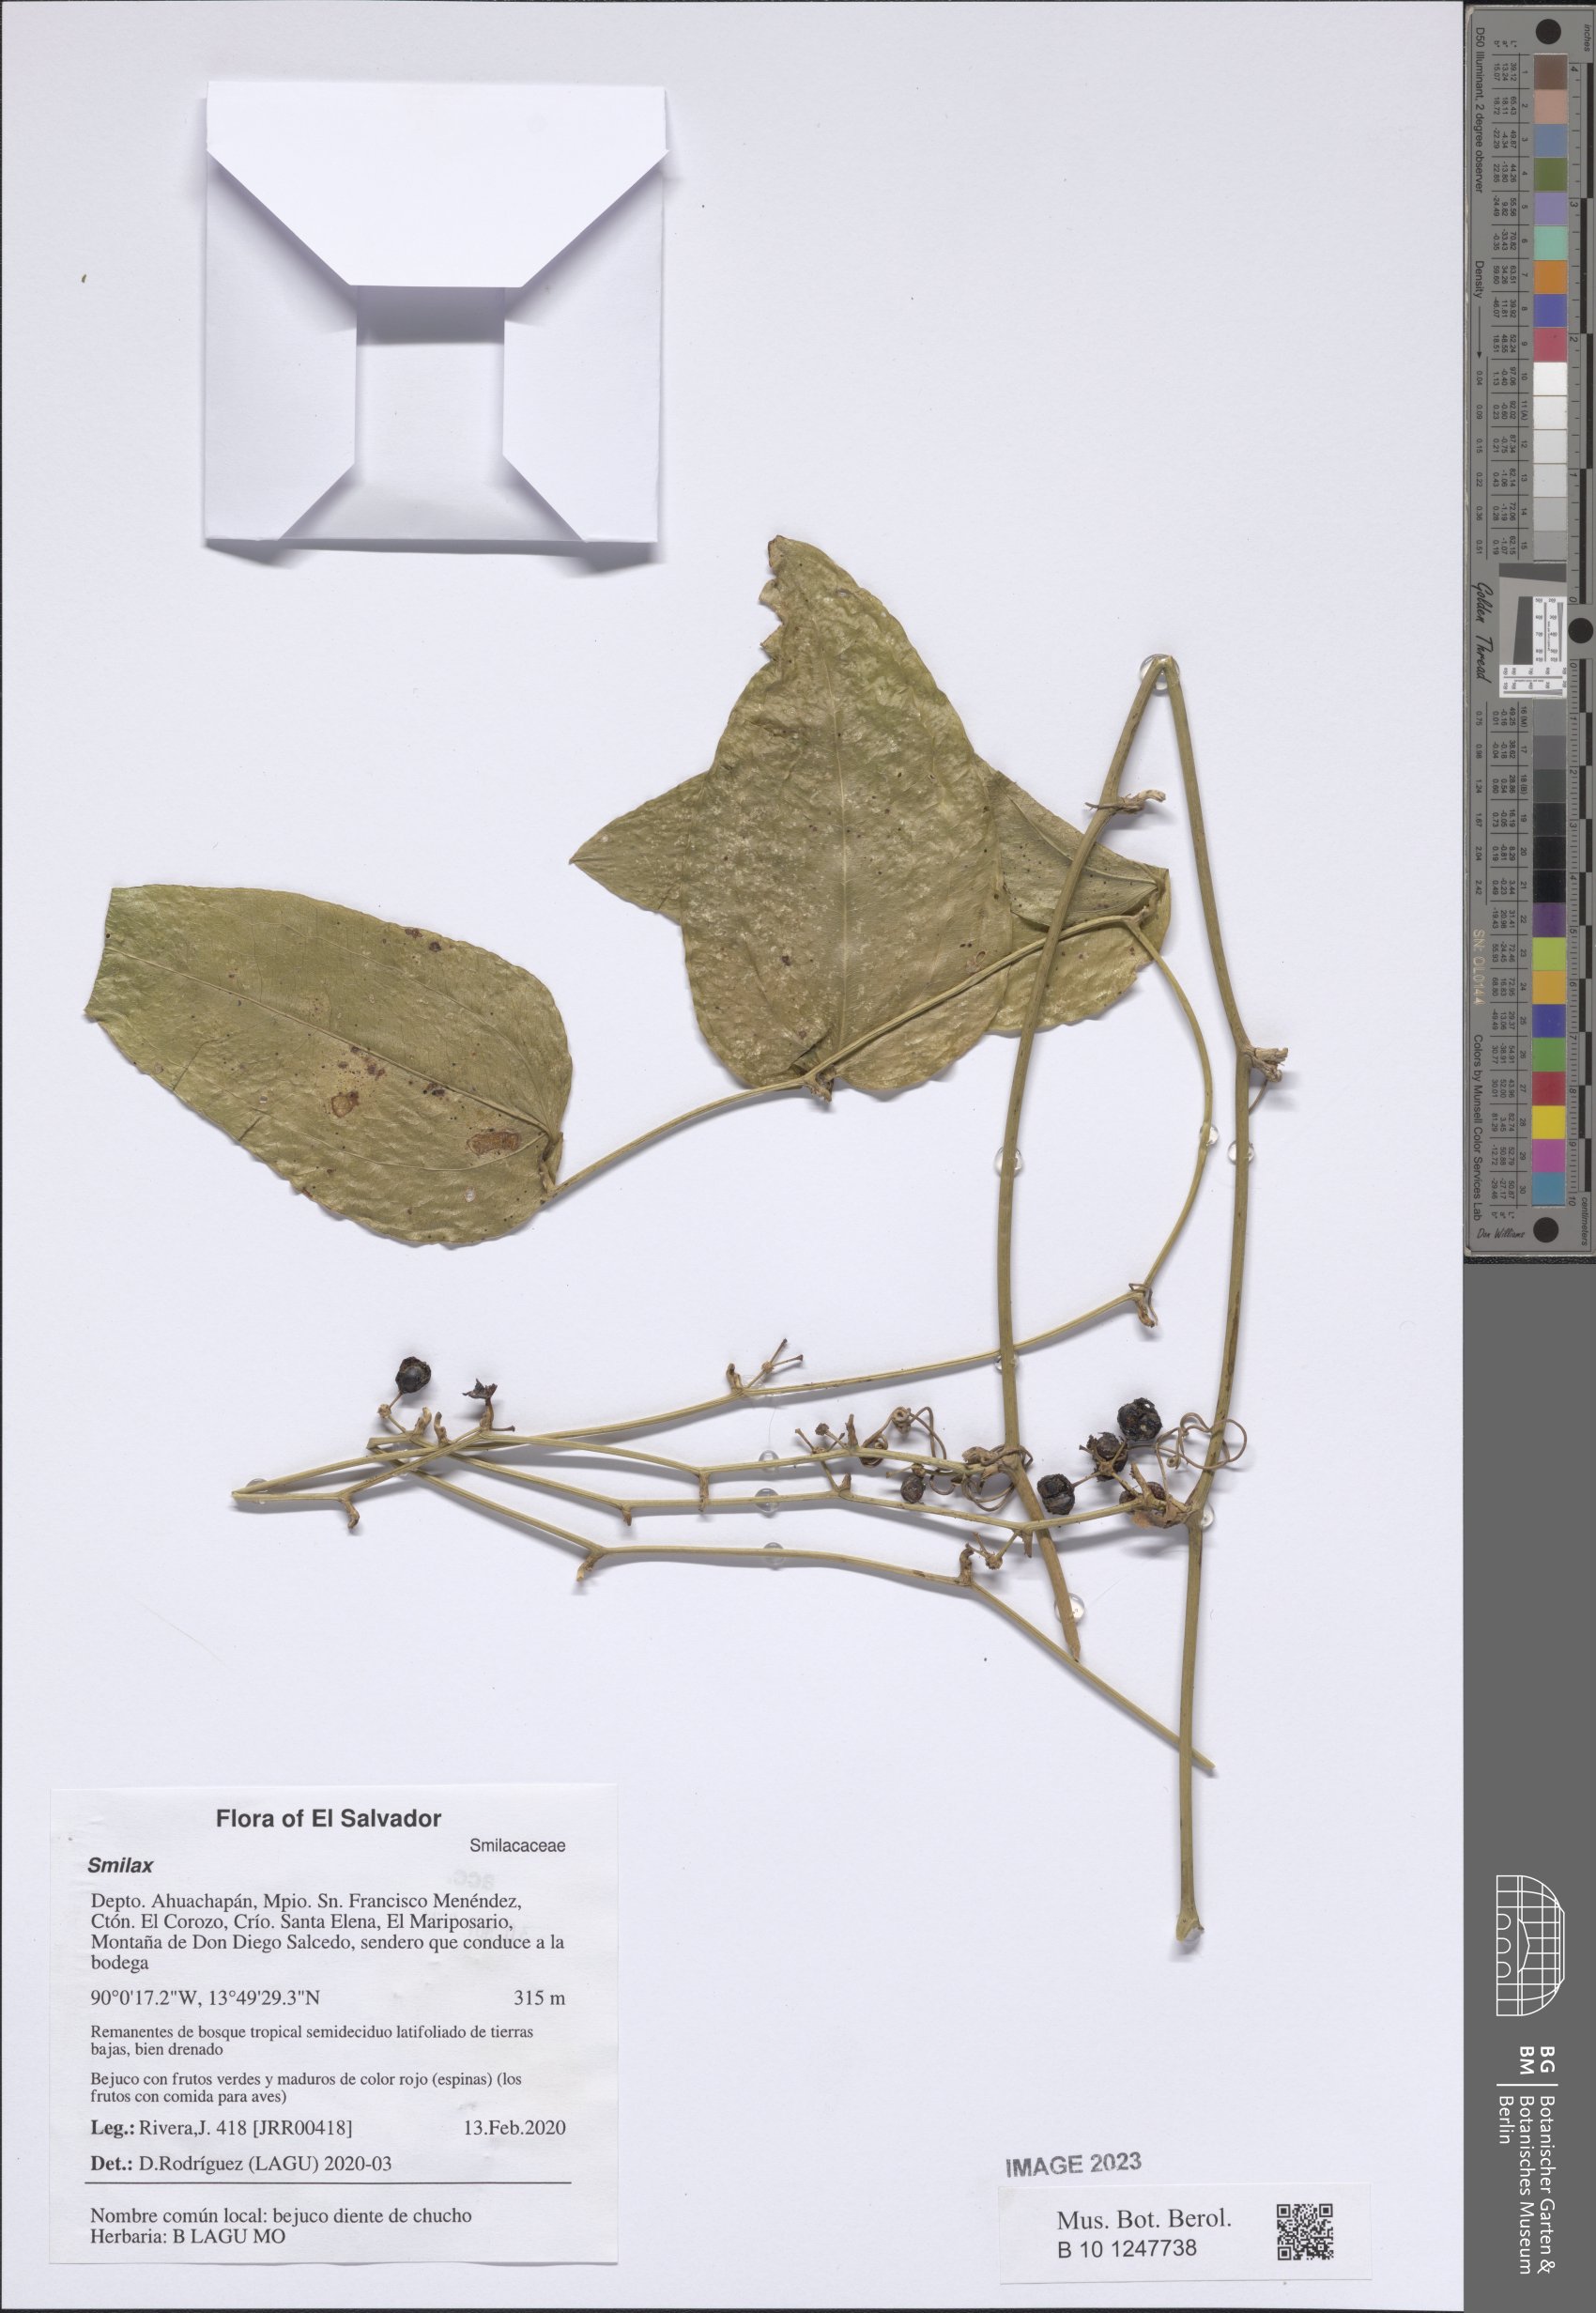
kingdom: Plantae
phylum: Tracheophyta
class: Liliopsida
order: Liliales
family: Smilacaceae
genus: Smilax
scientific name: Smilax
